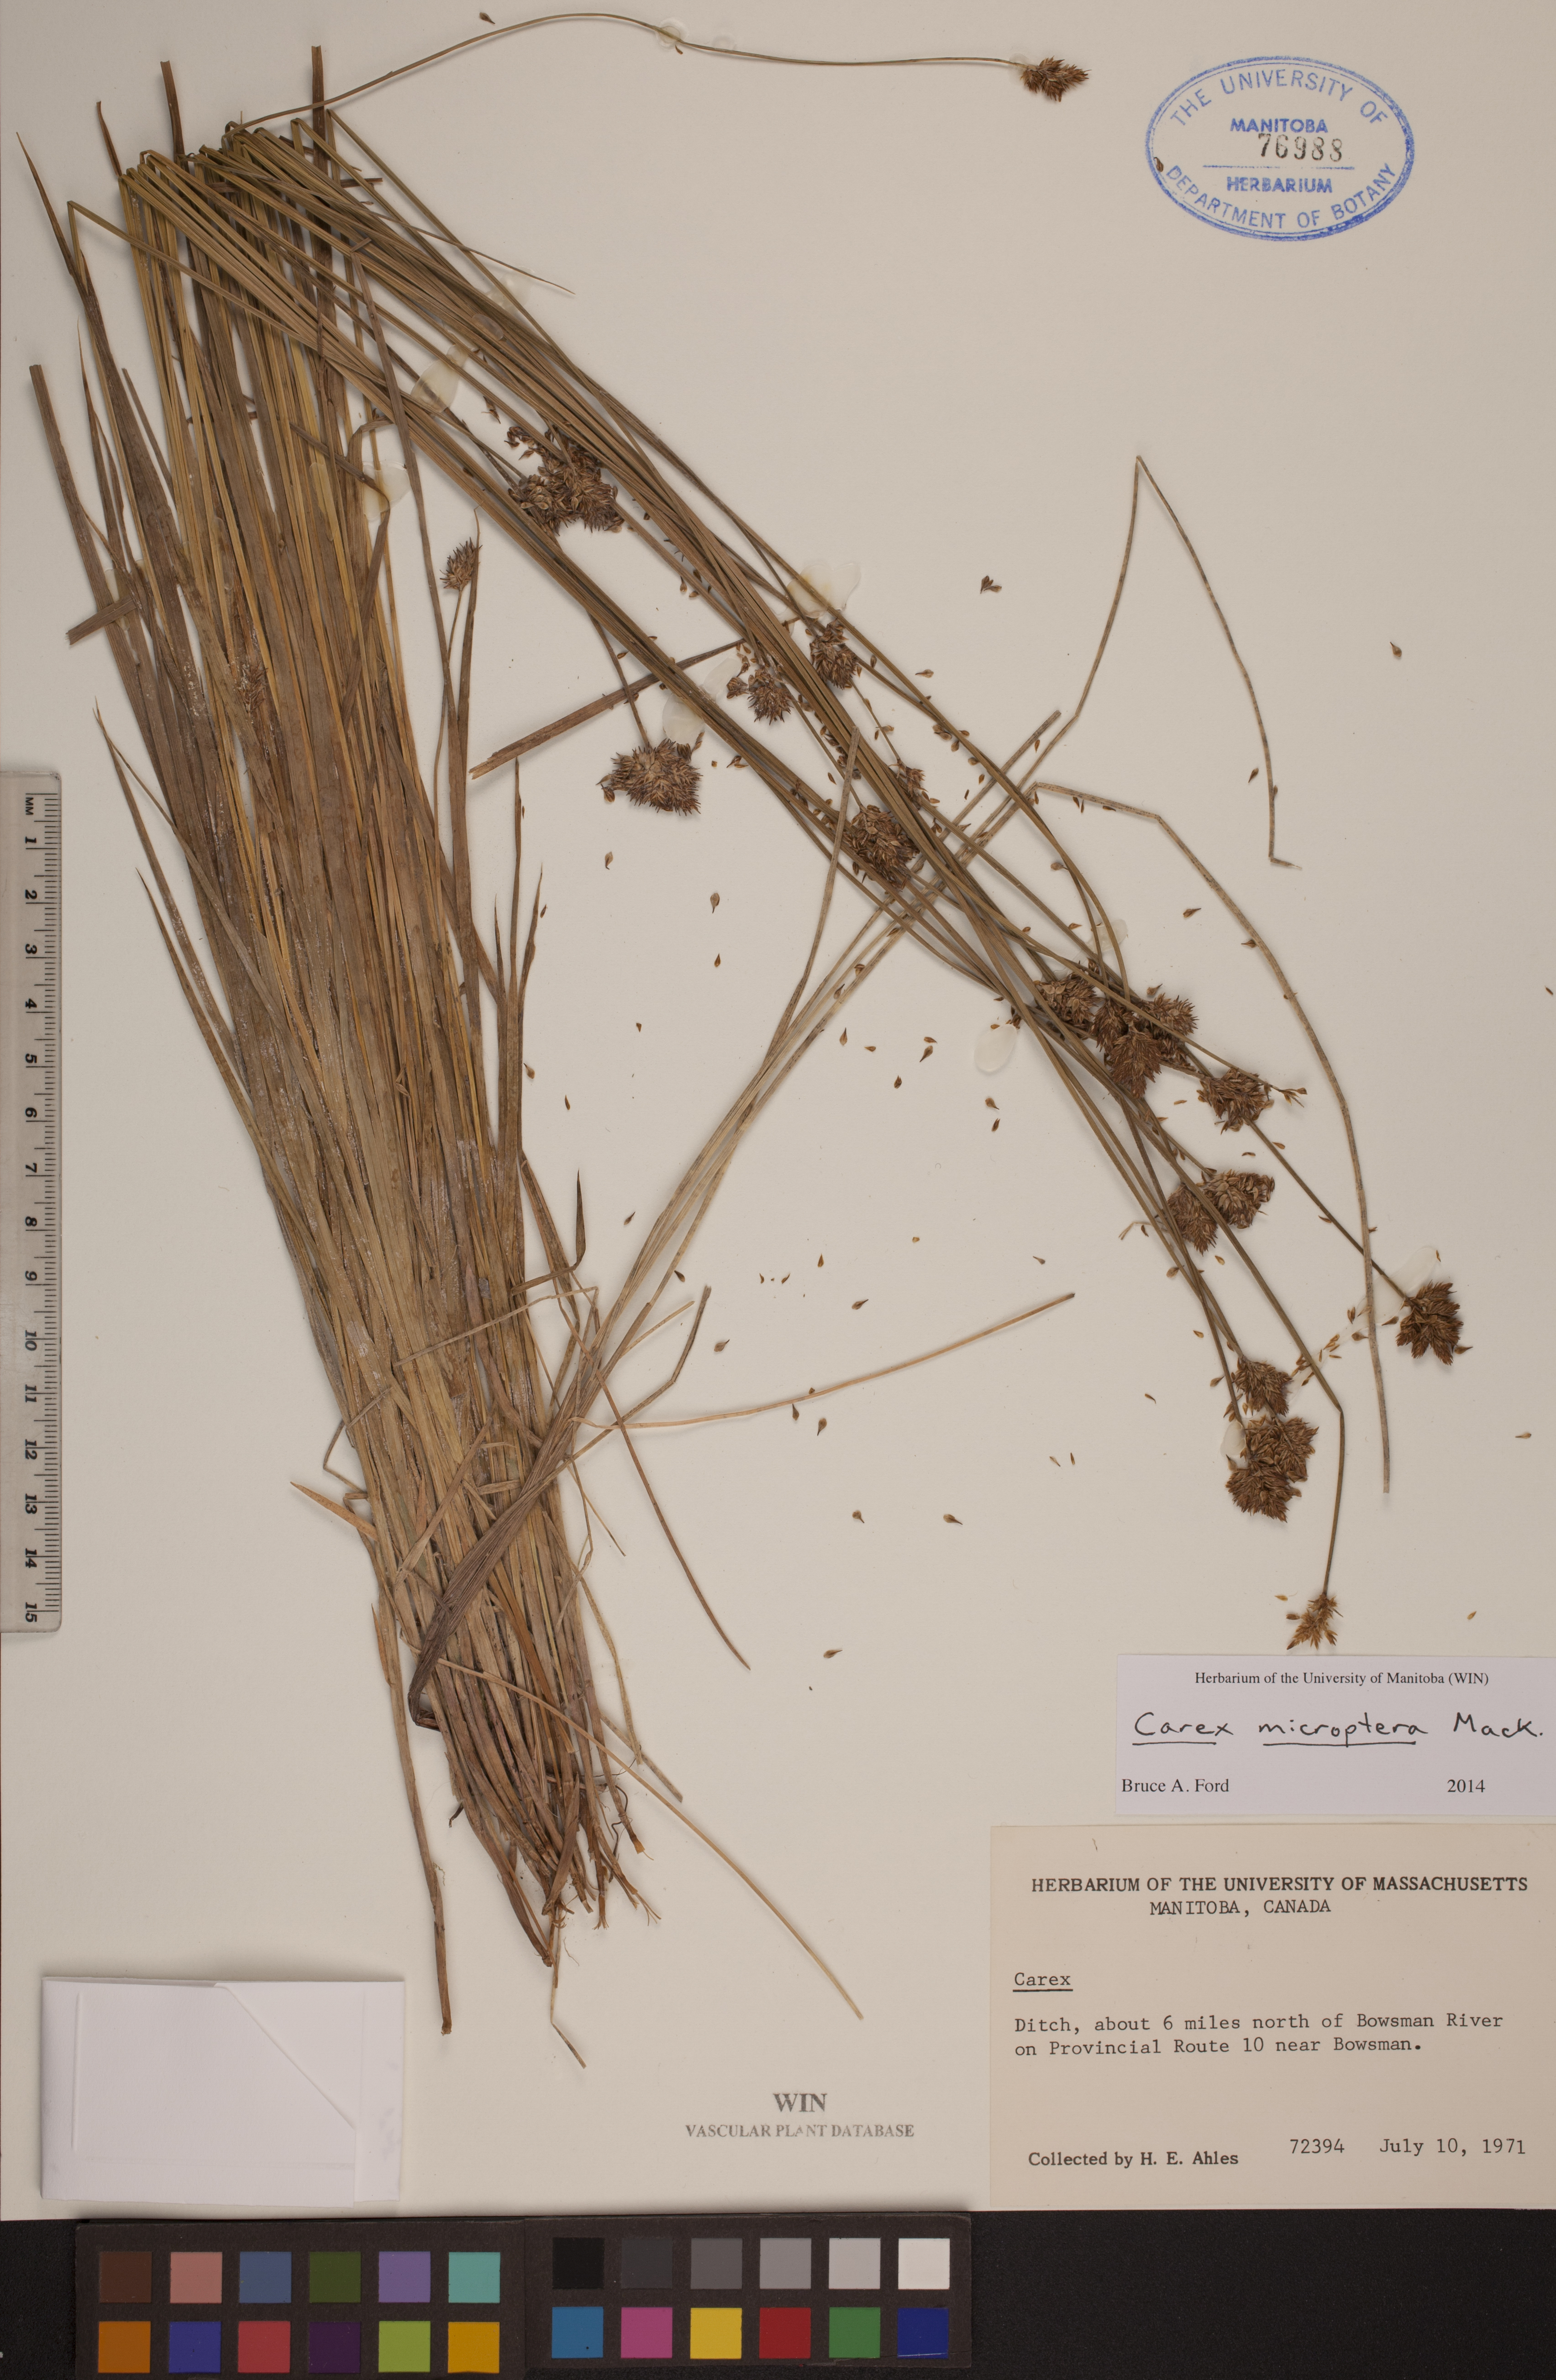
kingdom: Plantae
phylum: Tracheophyta
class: Liliopsida
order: Poales
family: Cyperaceae
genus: Carex
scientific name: Carex microptera
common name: Oval-headed sedge
